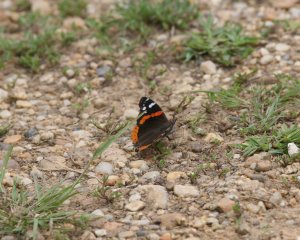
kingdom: Animalia
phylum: Arthropoda
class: Insecta
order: Lepidoptera
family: Nymphalidae
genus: Vanessa
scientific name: Vanessa atalanta
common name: Red Admiral
